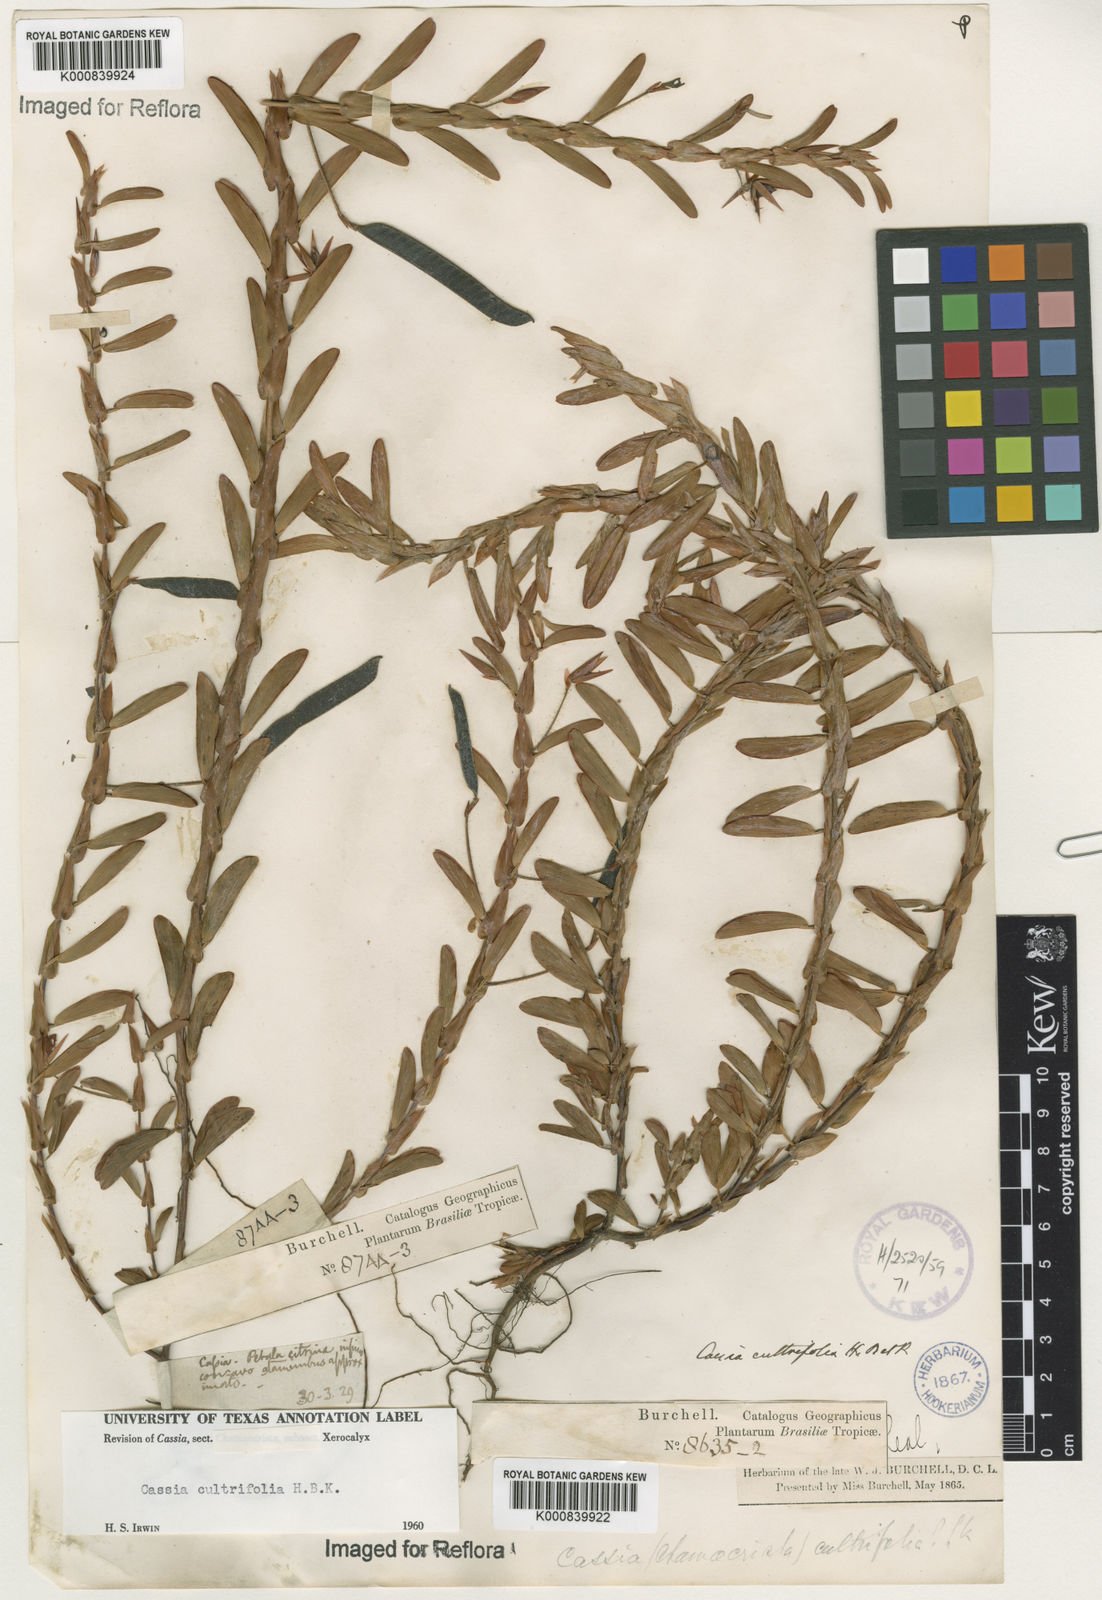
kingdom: Plantae
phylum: Tracheophyta
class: Magnoliopsida
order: Fabales
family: Fabaceae
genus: Chamaecrista
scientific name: Chamaecrista diphylla
